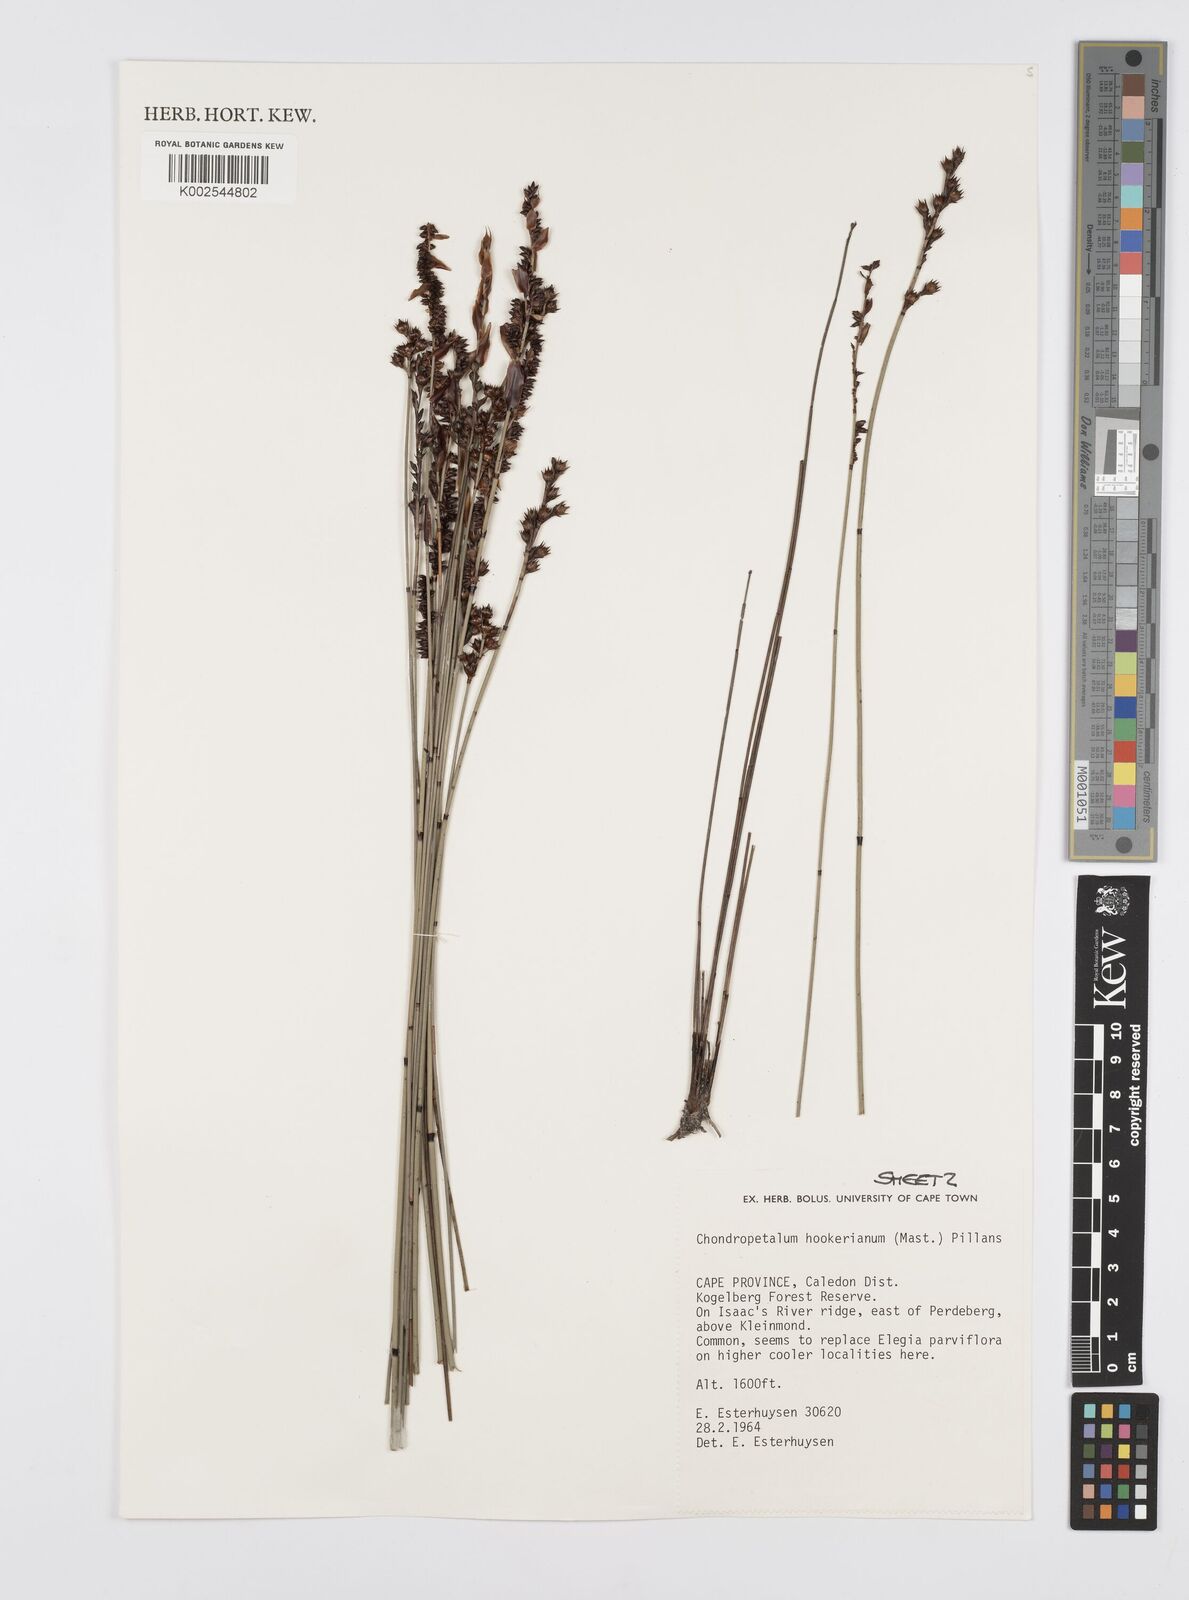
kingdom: Plantae
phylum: Tracheophyta
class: Liliopsida
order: Poales
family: Restionaceae
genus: Elegia
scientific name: Elegia hookeriana
